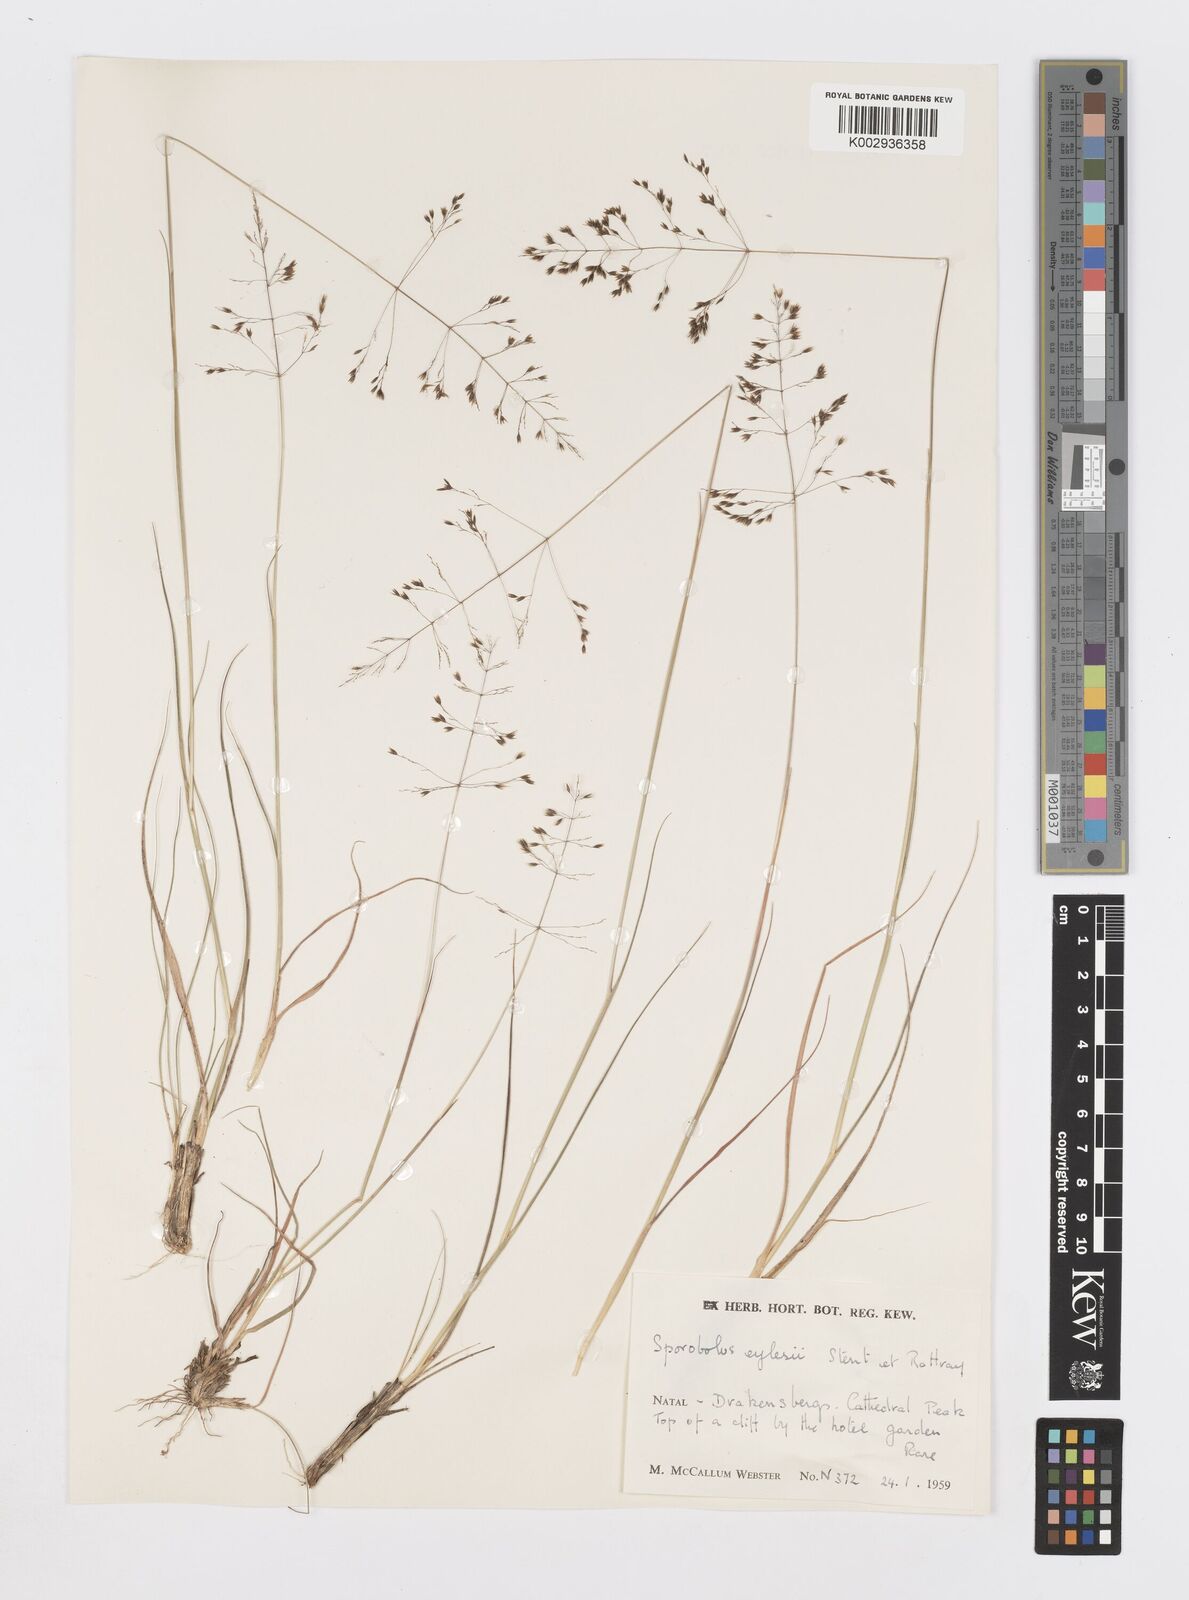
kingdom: Plantae
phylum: Tracheophyta
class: Liliopsida
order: Poales
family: Poaceae
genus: Sporobolus
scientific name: Sporobolus centrifugus
